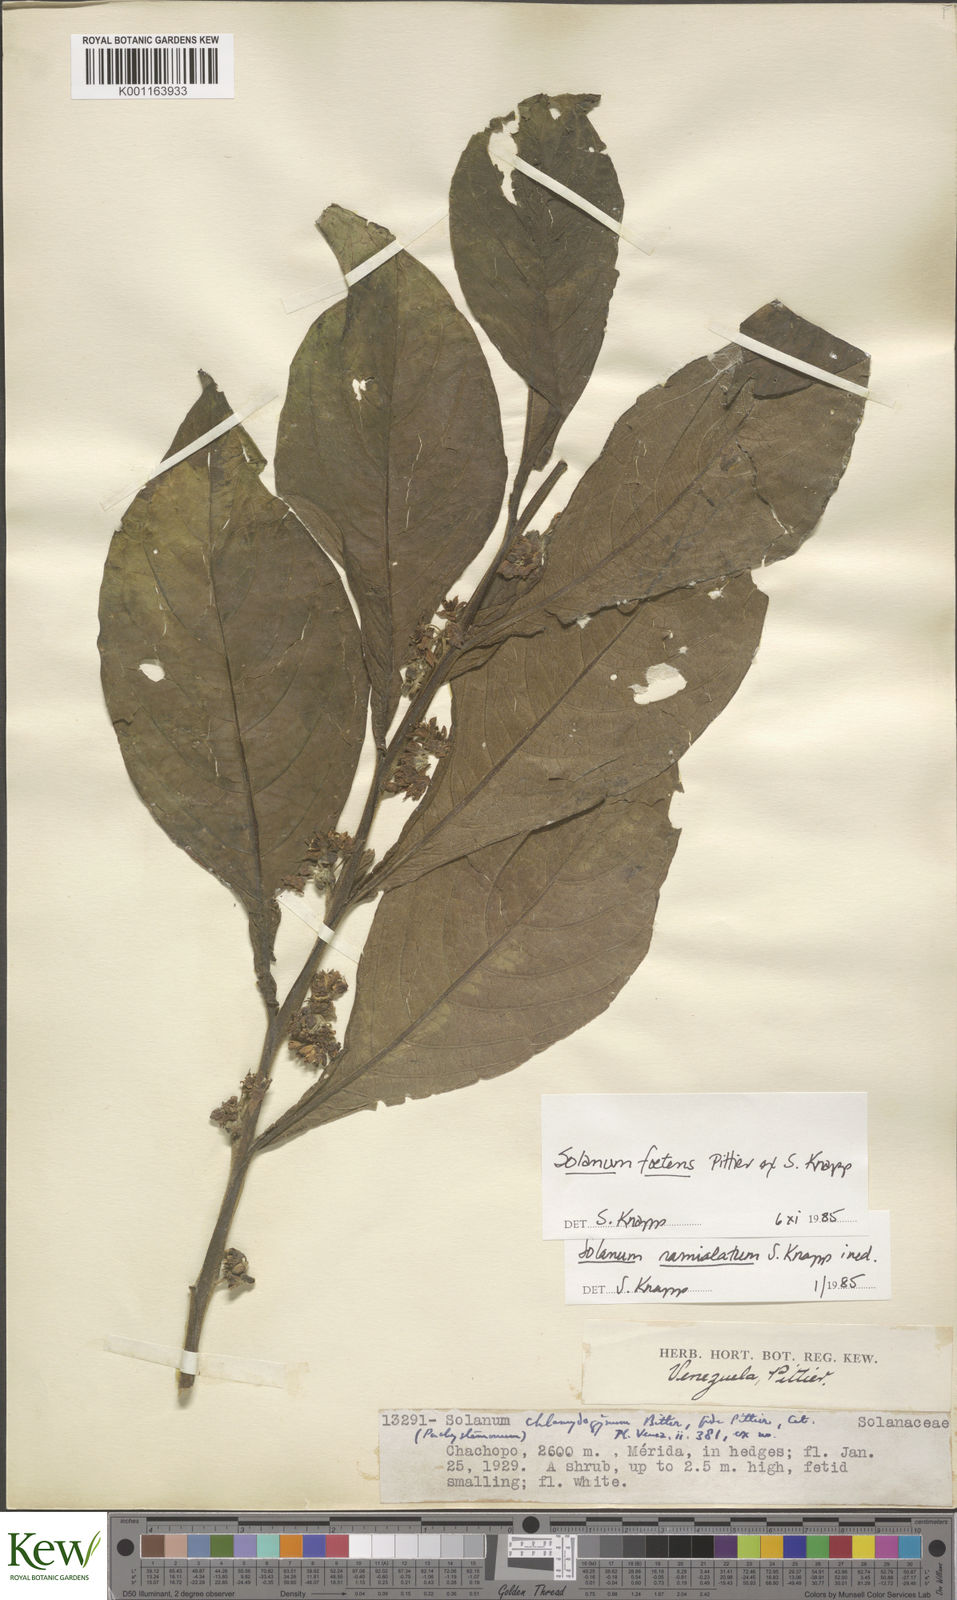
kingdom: Plantae
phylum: Tracheophyta
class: Magnoliopsida
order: Solanales
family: Solanaceae
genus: Solanum
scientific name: Solanum foetens
